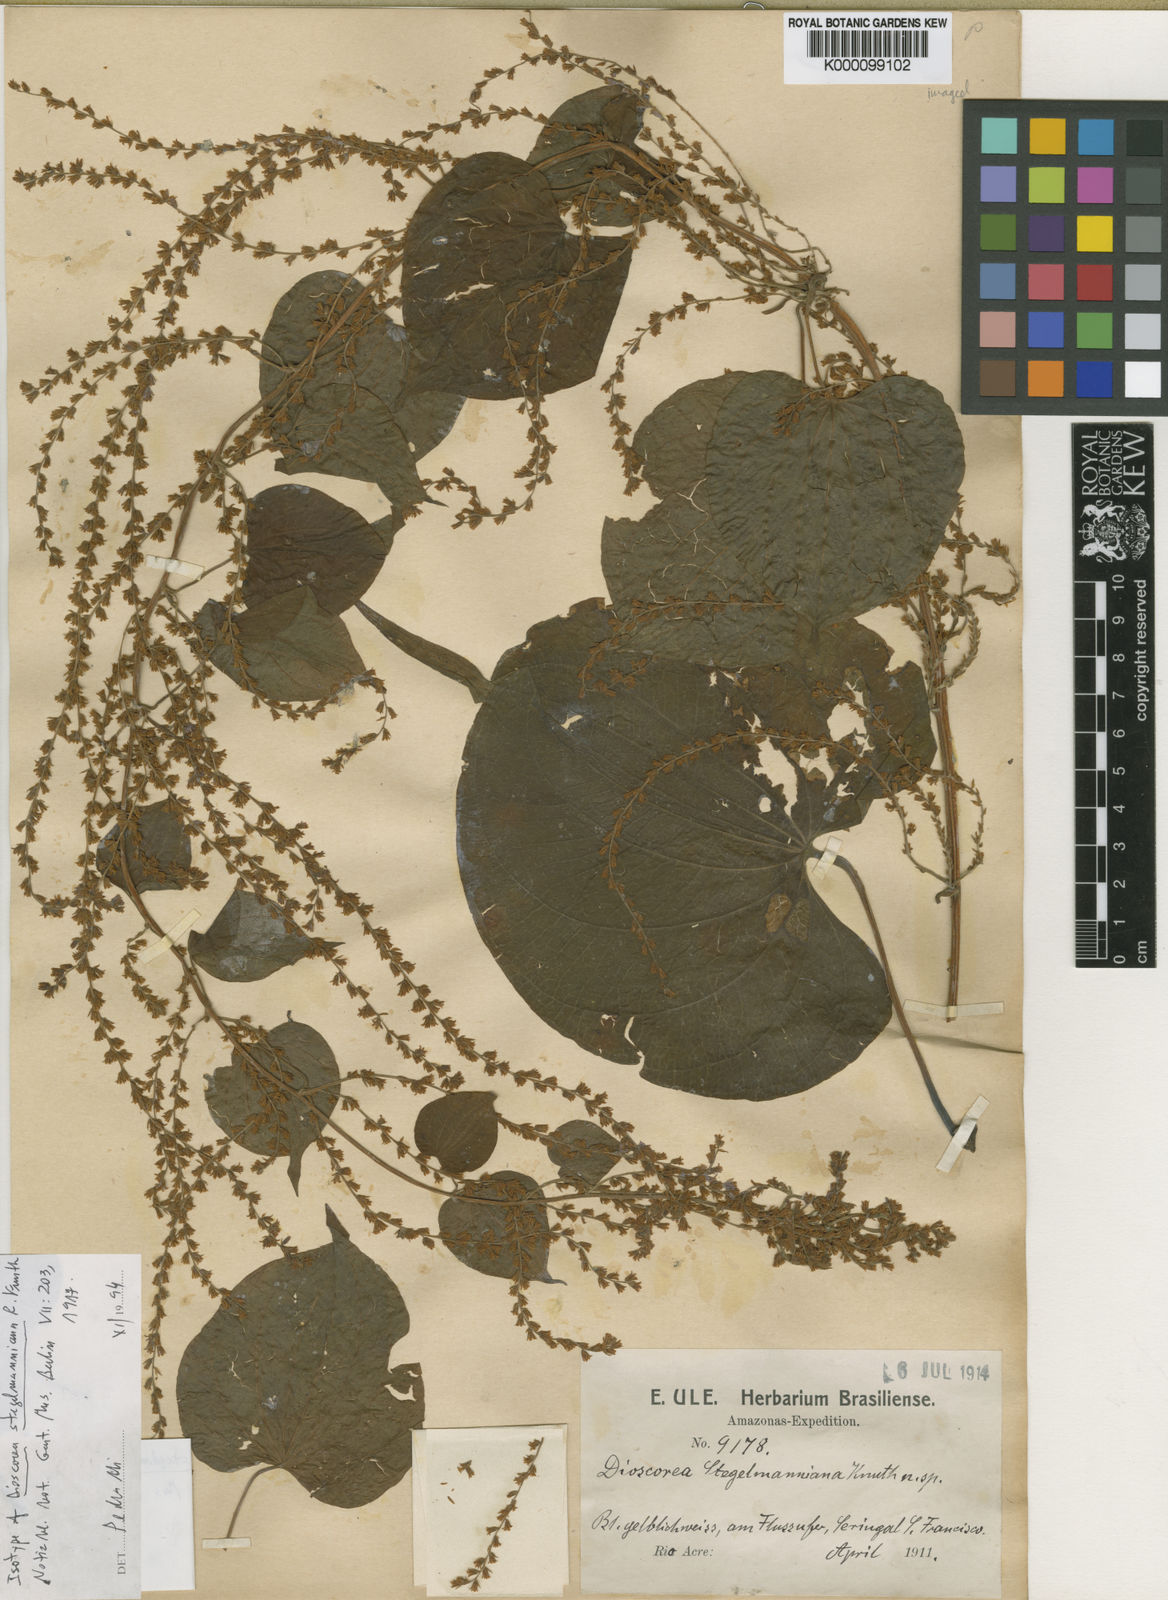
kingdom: Plantae
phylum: Tracheophyta
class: Liliopsida
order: Dioscoreales
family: Dioscoreaceae
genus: Dioscorea
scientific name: Dioscorea stegelmanniana
